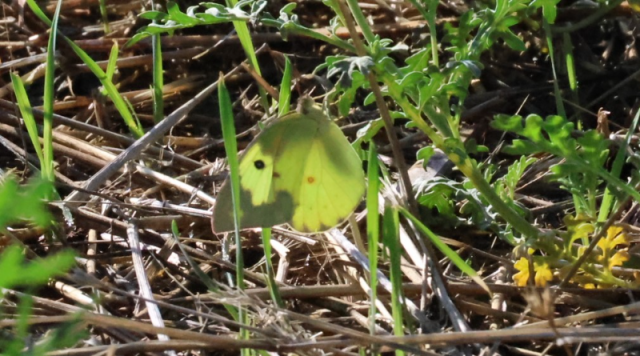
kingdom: Animalia
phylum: Arthropoda
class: Insecta
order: Lepidoptera
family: Pieridae
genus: Zerene
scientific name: Zerene cesonia
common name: Southern Dogface
